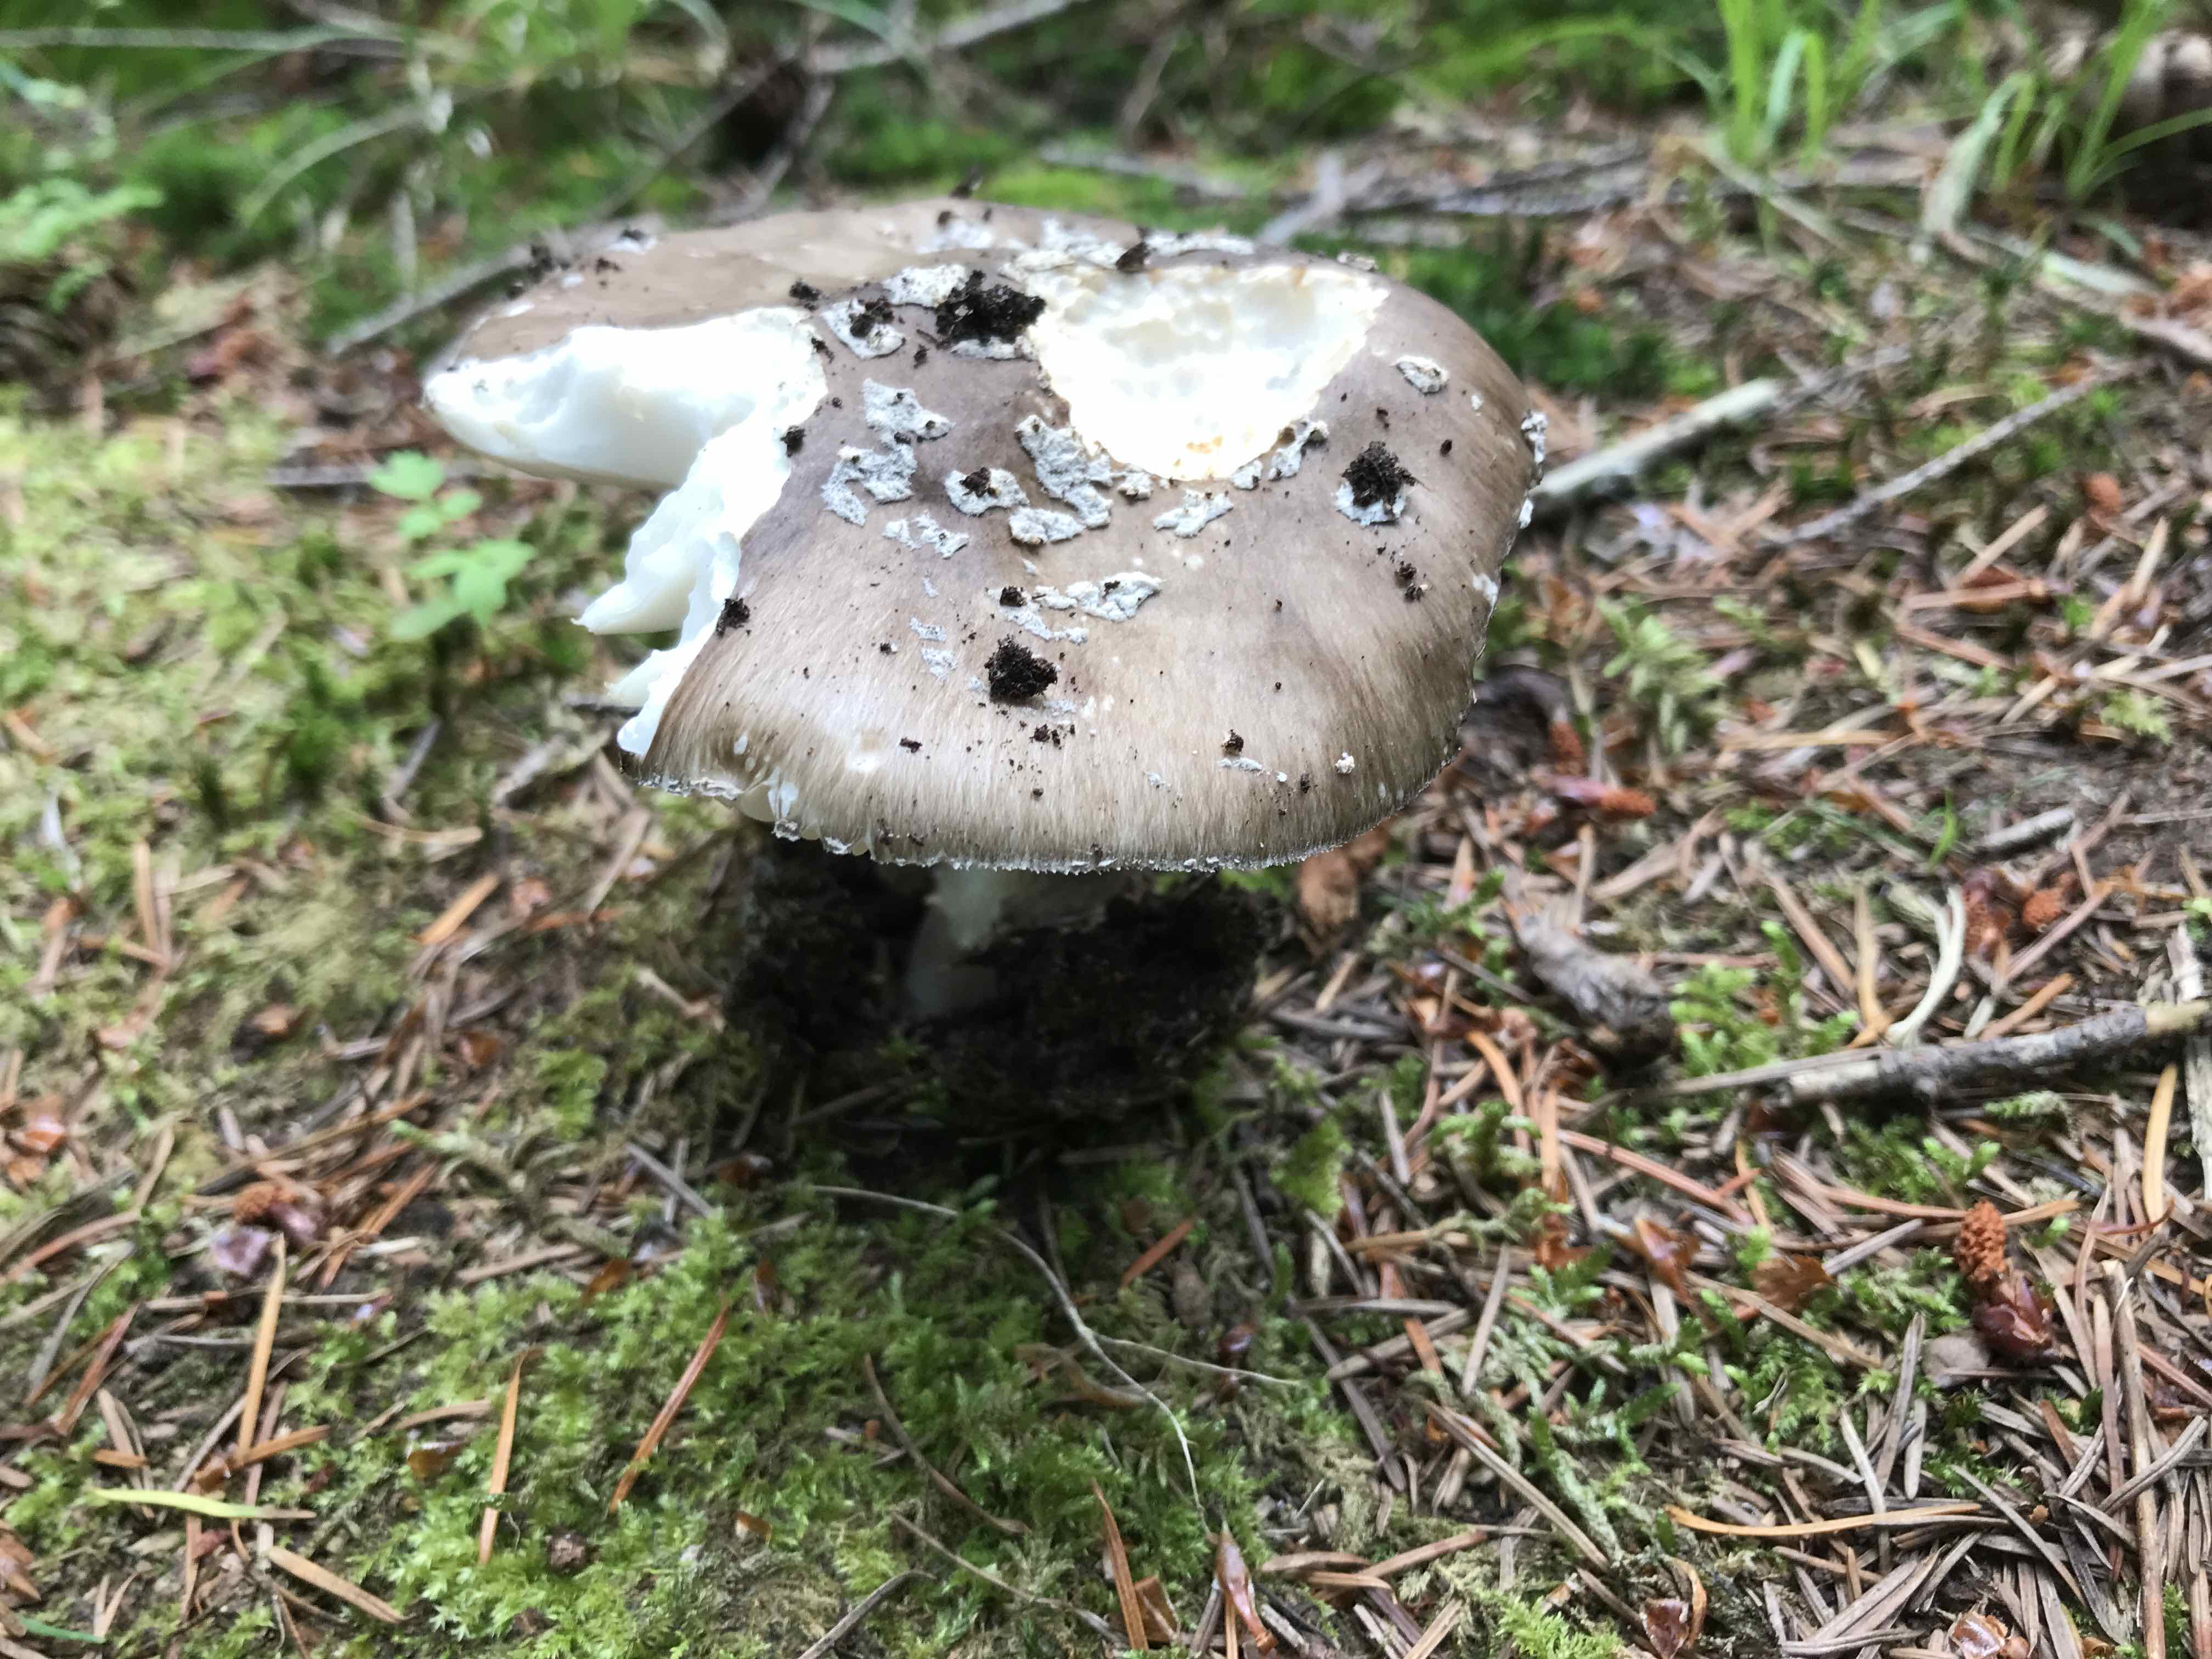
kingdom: Fungi
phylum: Basidiomycota
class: Agaricomycetes
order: Agaricales
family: Amanitaceae
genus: Amanita
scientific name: Amanita
